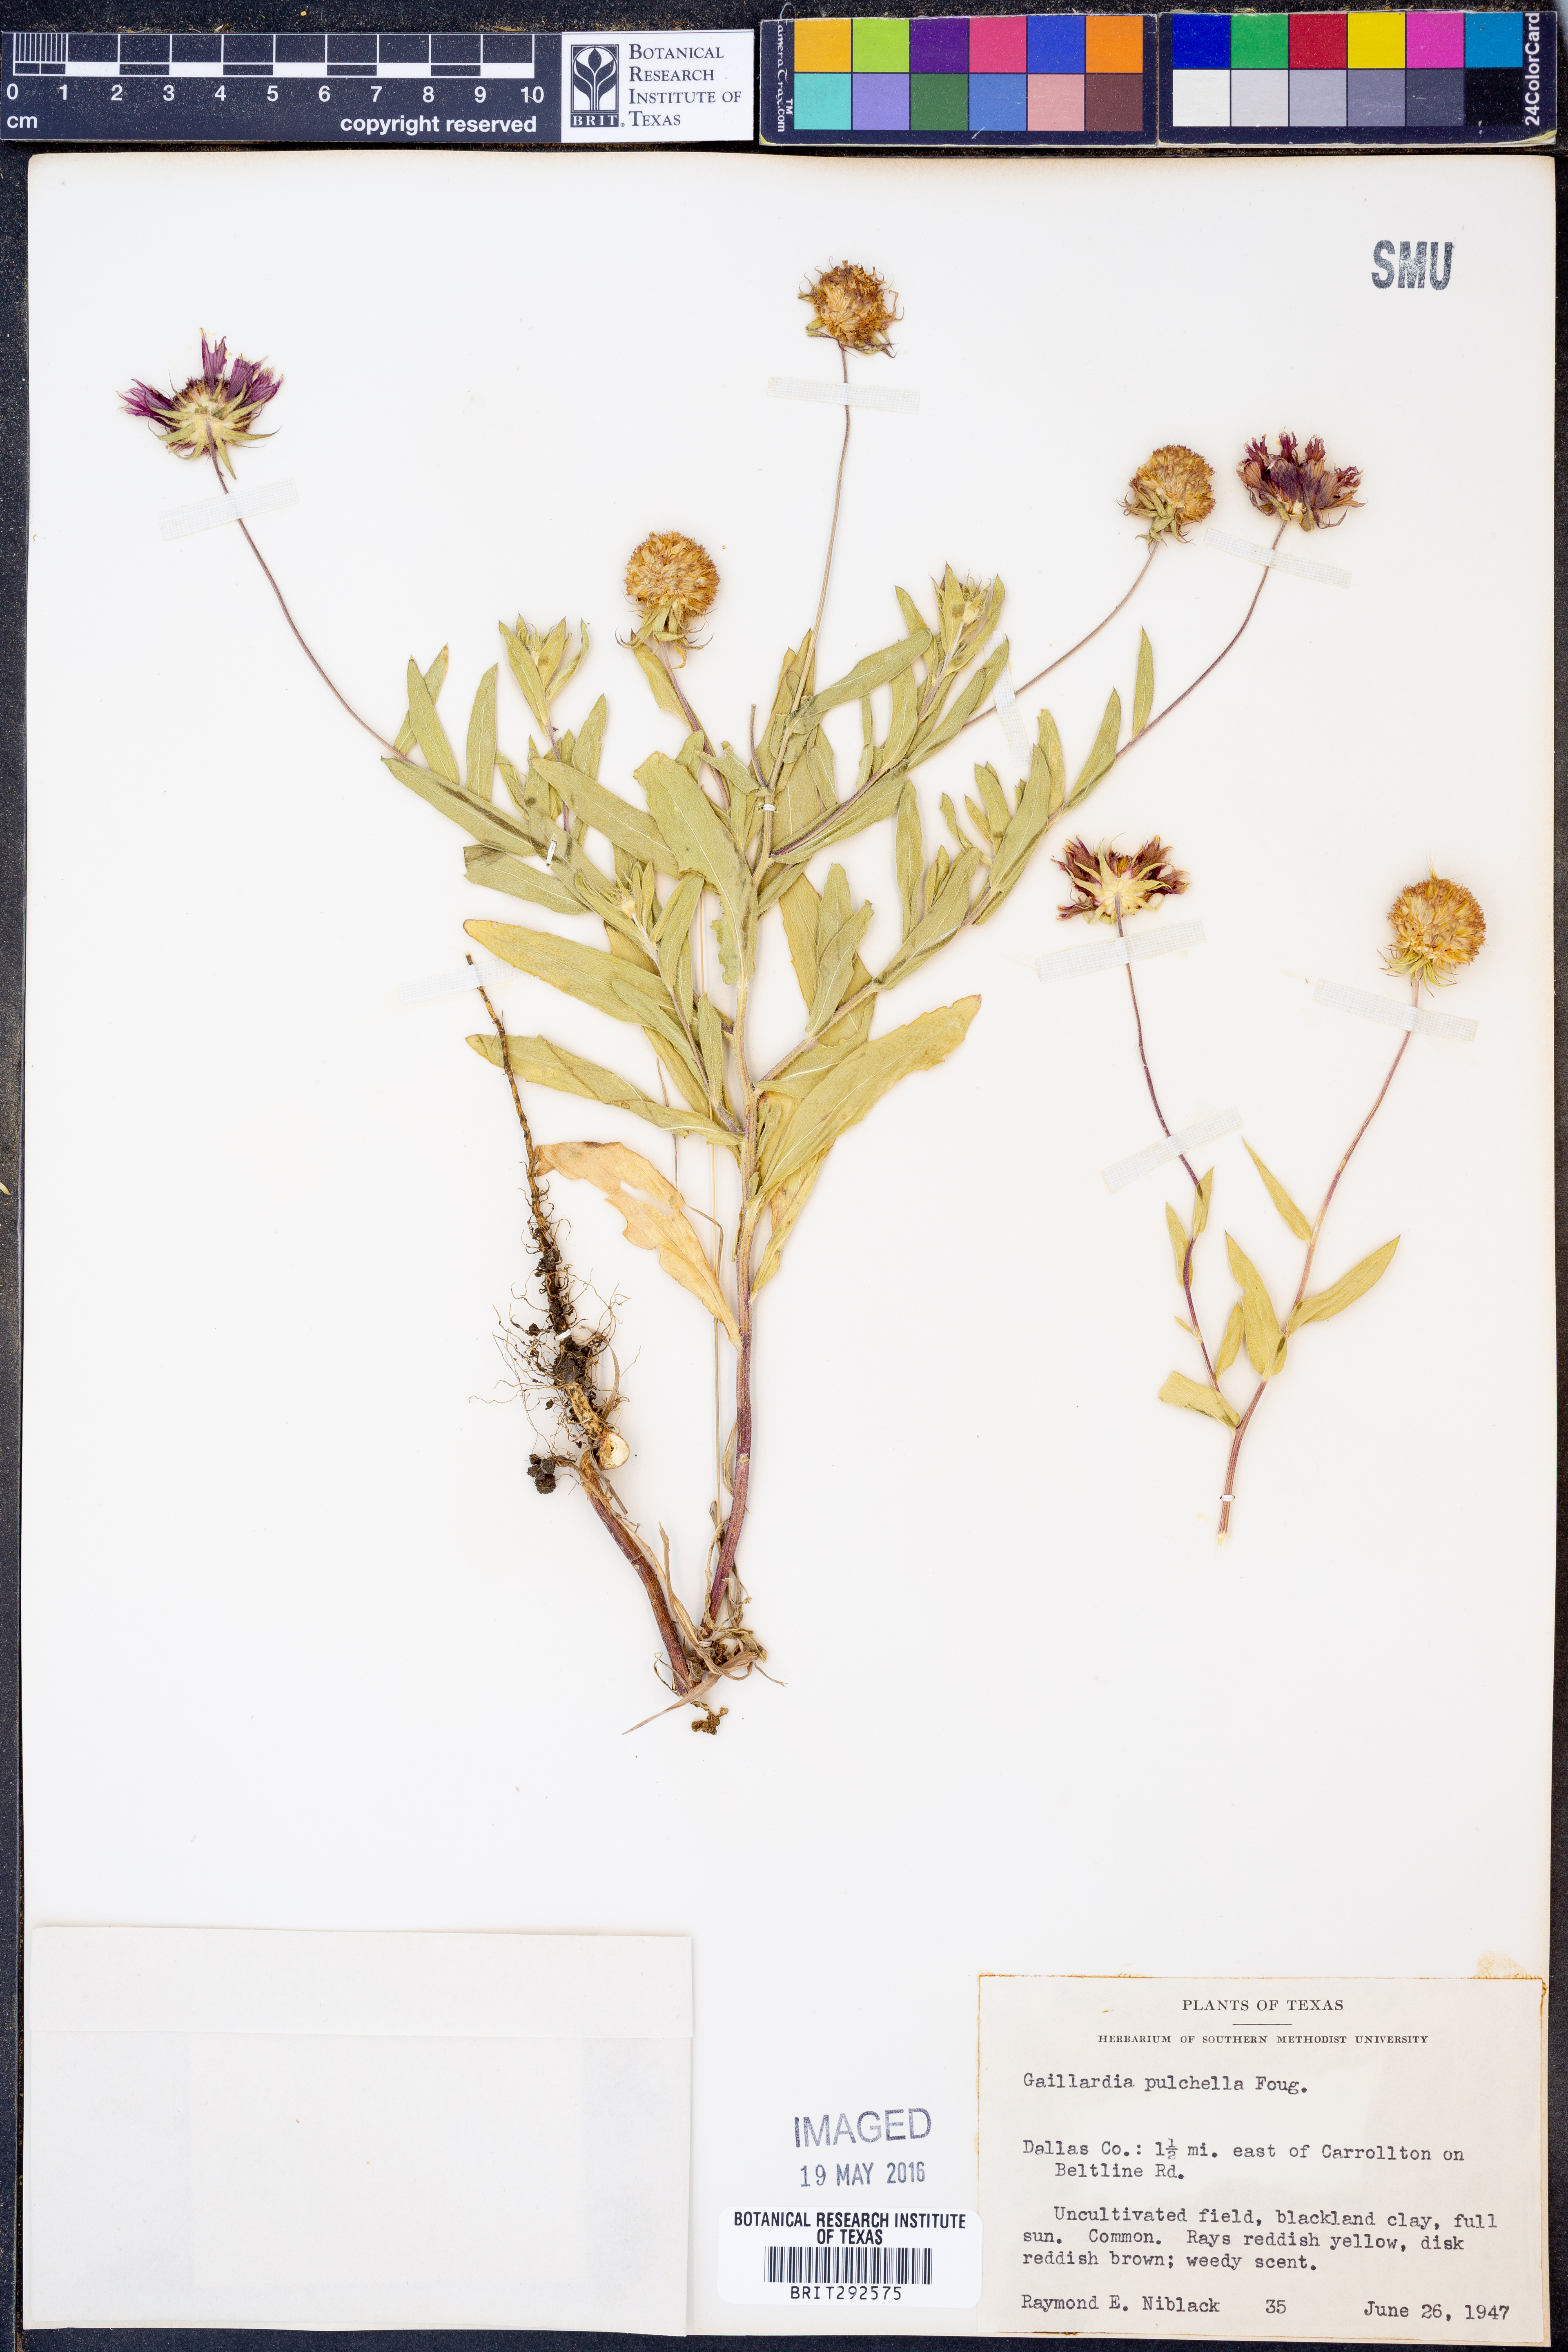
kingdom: Plantae
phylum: Tracheophyta
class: Magnoliopsida
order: Asterales
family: Asteraceae
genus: Gaillardia
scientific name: Gaillardia pulchella
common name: Firewheel
